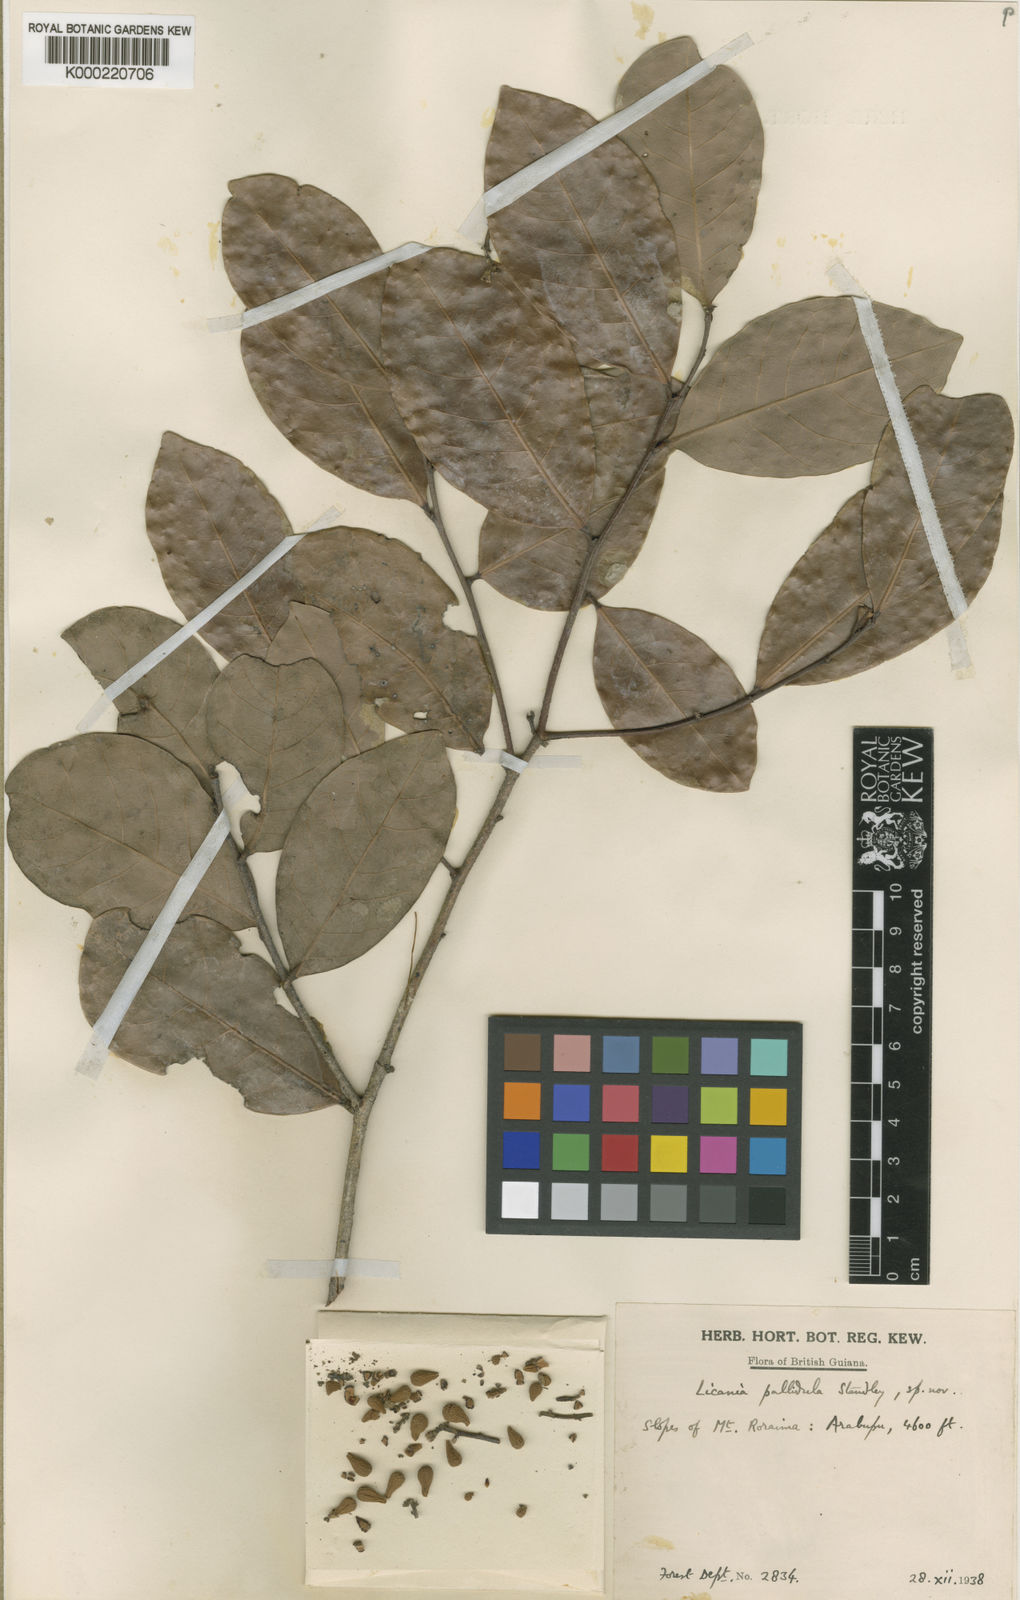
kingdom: Plantae
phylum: Tracheophyta
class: Magnoliopsida
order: Malpighiales
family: Chrysobalanaceae
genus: Licania
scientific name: Licania coriacea
